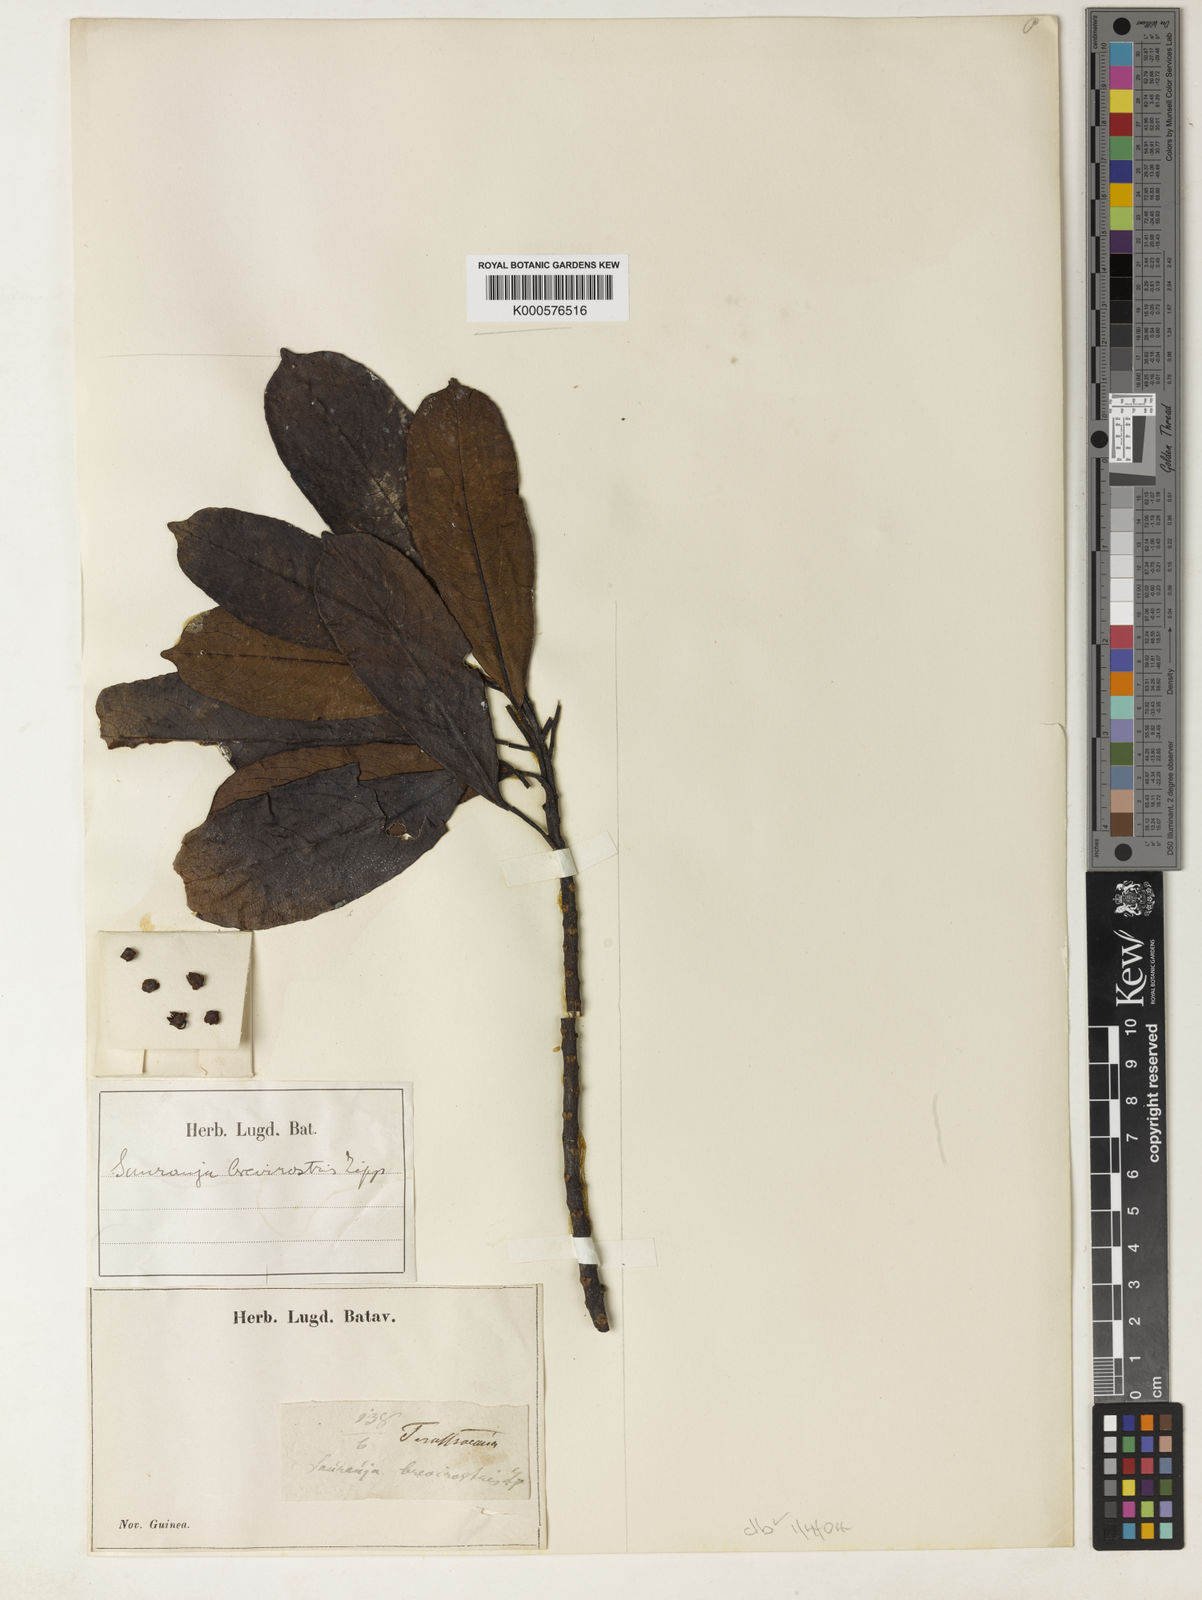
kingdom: Plantae
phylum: Tracheophyta
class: Magnoliopsida
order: Ericales
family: Actinidiaceae
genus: Saurauia
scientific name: Saurauia brevirostris
